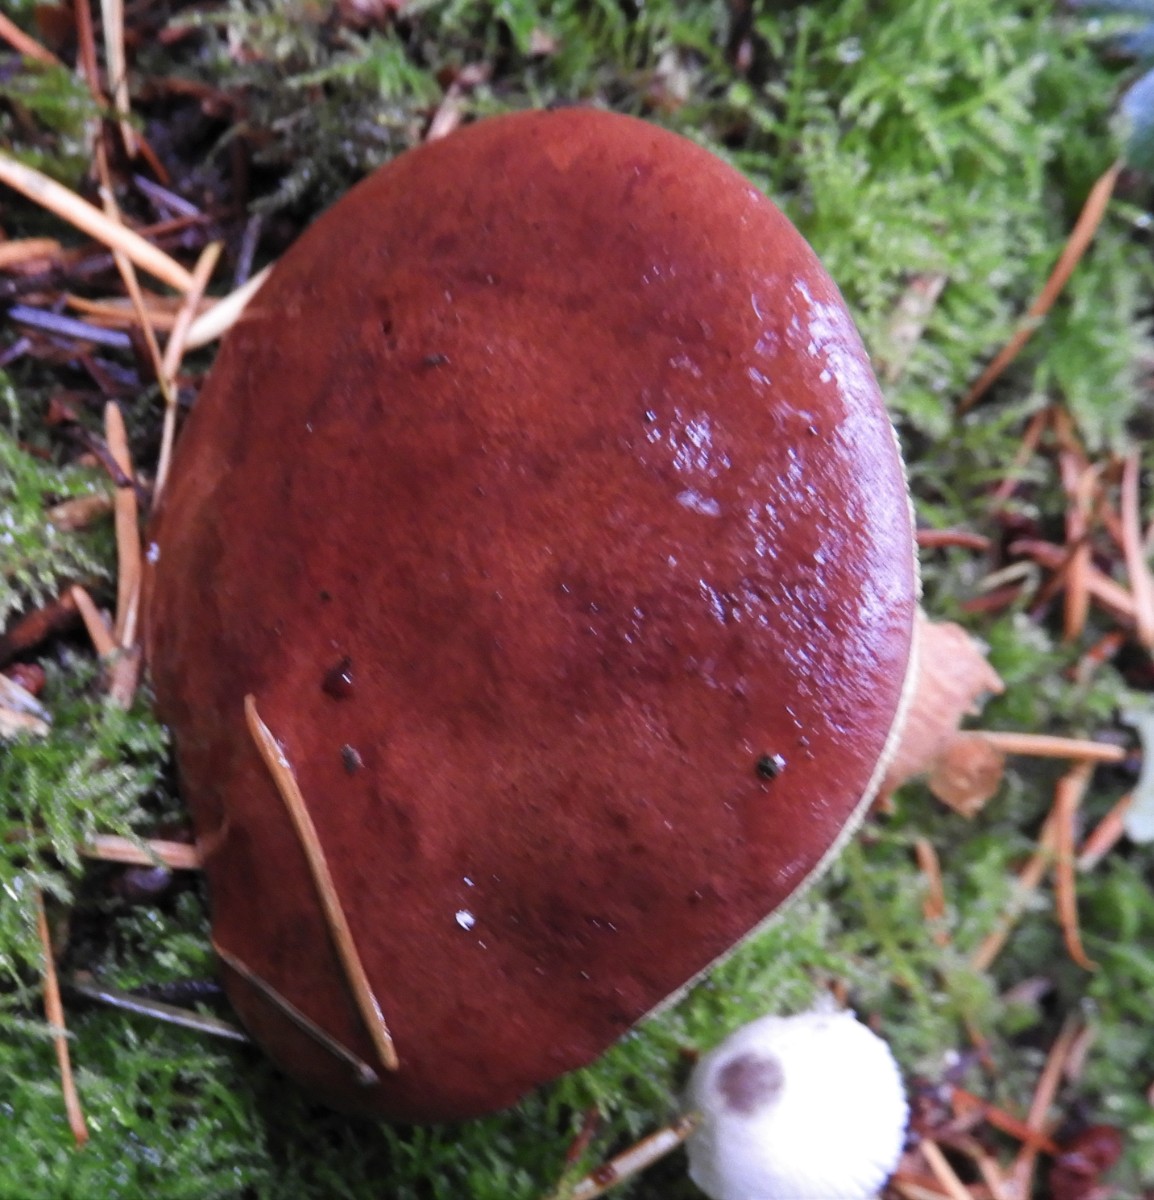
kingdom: Fungi
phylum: Basidiomycota
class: Agaricomycetes
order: Boletales
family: Boletaceae
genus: Imleria
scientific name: Imleria badia
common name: brunstokket rørhat
